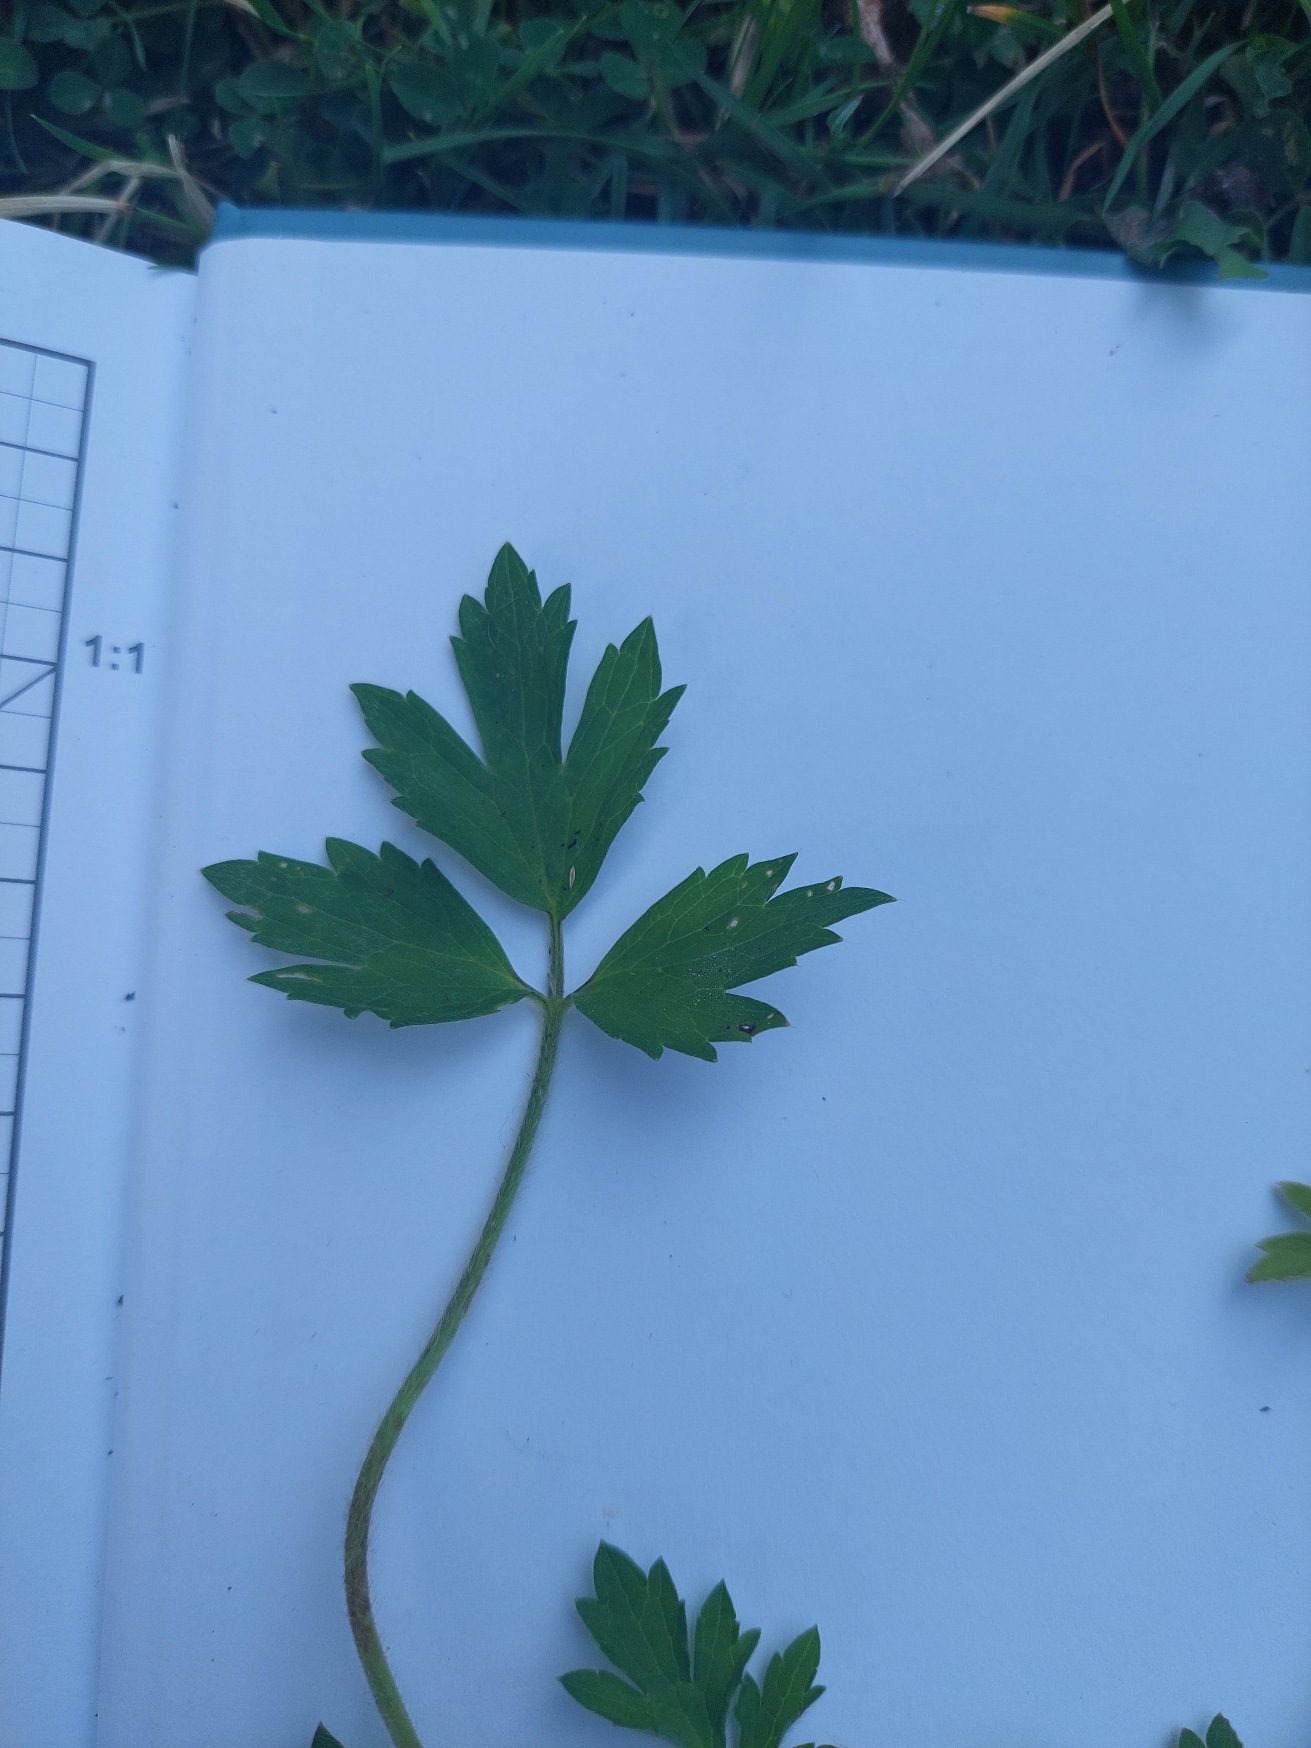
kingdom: Plantae
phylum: Tracheophyta
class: Magnoliopsida
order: Ranunculales
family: Ranunculaceae
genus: Ranunculus
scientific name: Ranunculus repens
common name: Lav ranunkel
